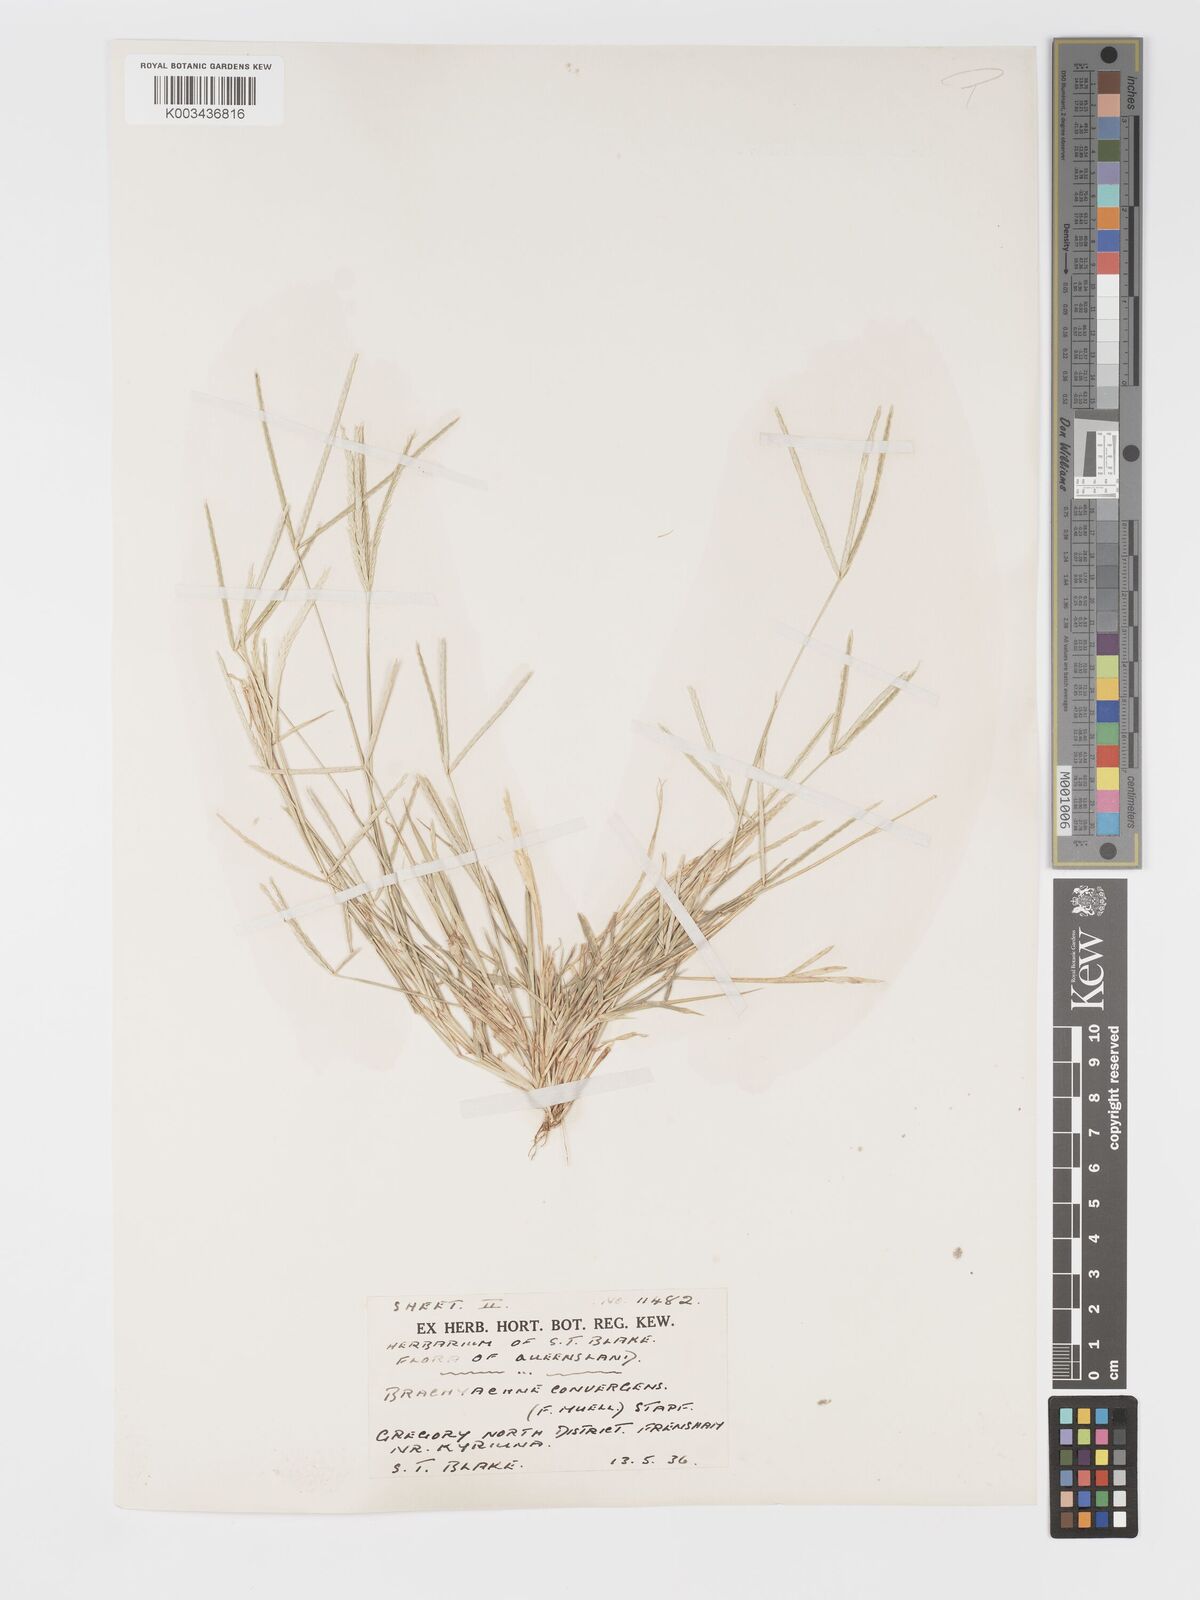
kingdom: Plantae
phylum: Tracheophyta
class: Liliopsida
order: Poales
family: Poaceae
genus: Cynodon
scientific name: Cynodon convergens
